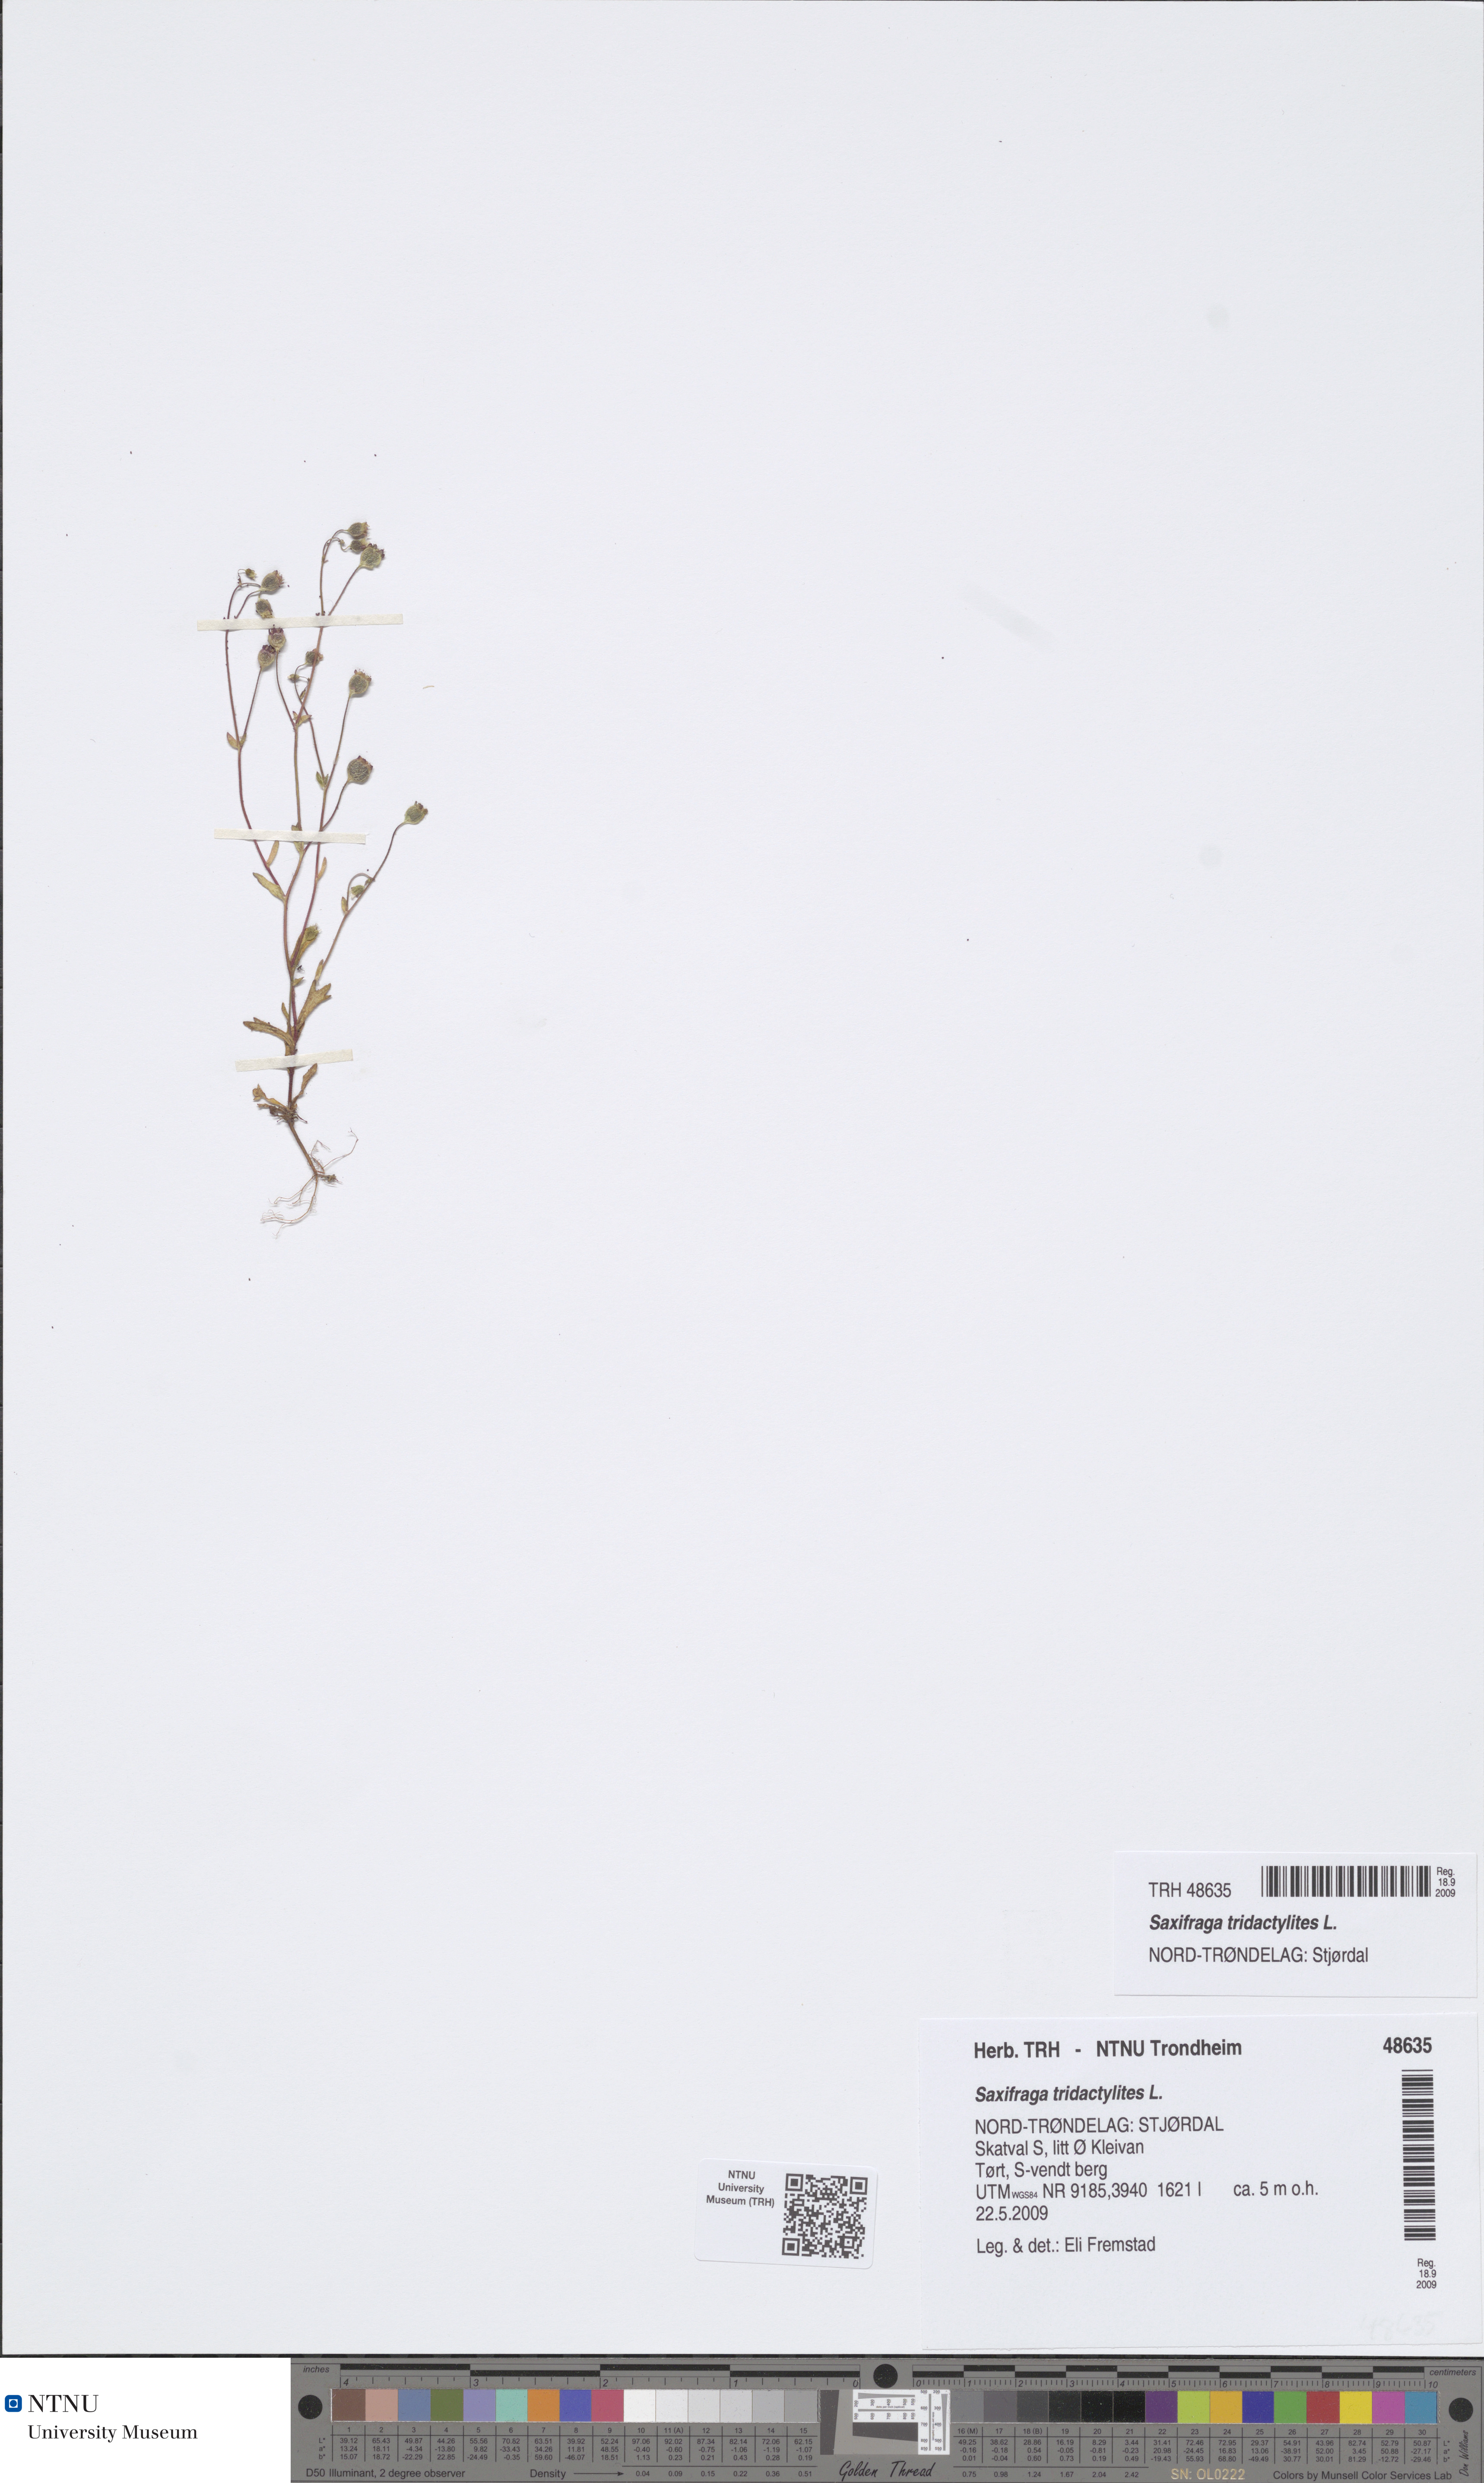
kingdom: Plantae
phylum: Tracheophyta
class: Magnoliopsida
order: Saxifragales
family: Saxifragaceae
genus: Saxifraga
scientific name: Saxifraga tridactylites
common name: Rue-leaved saxifrage
